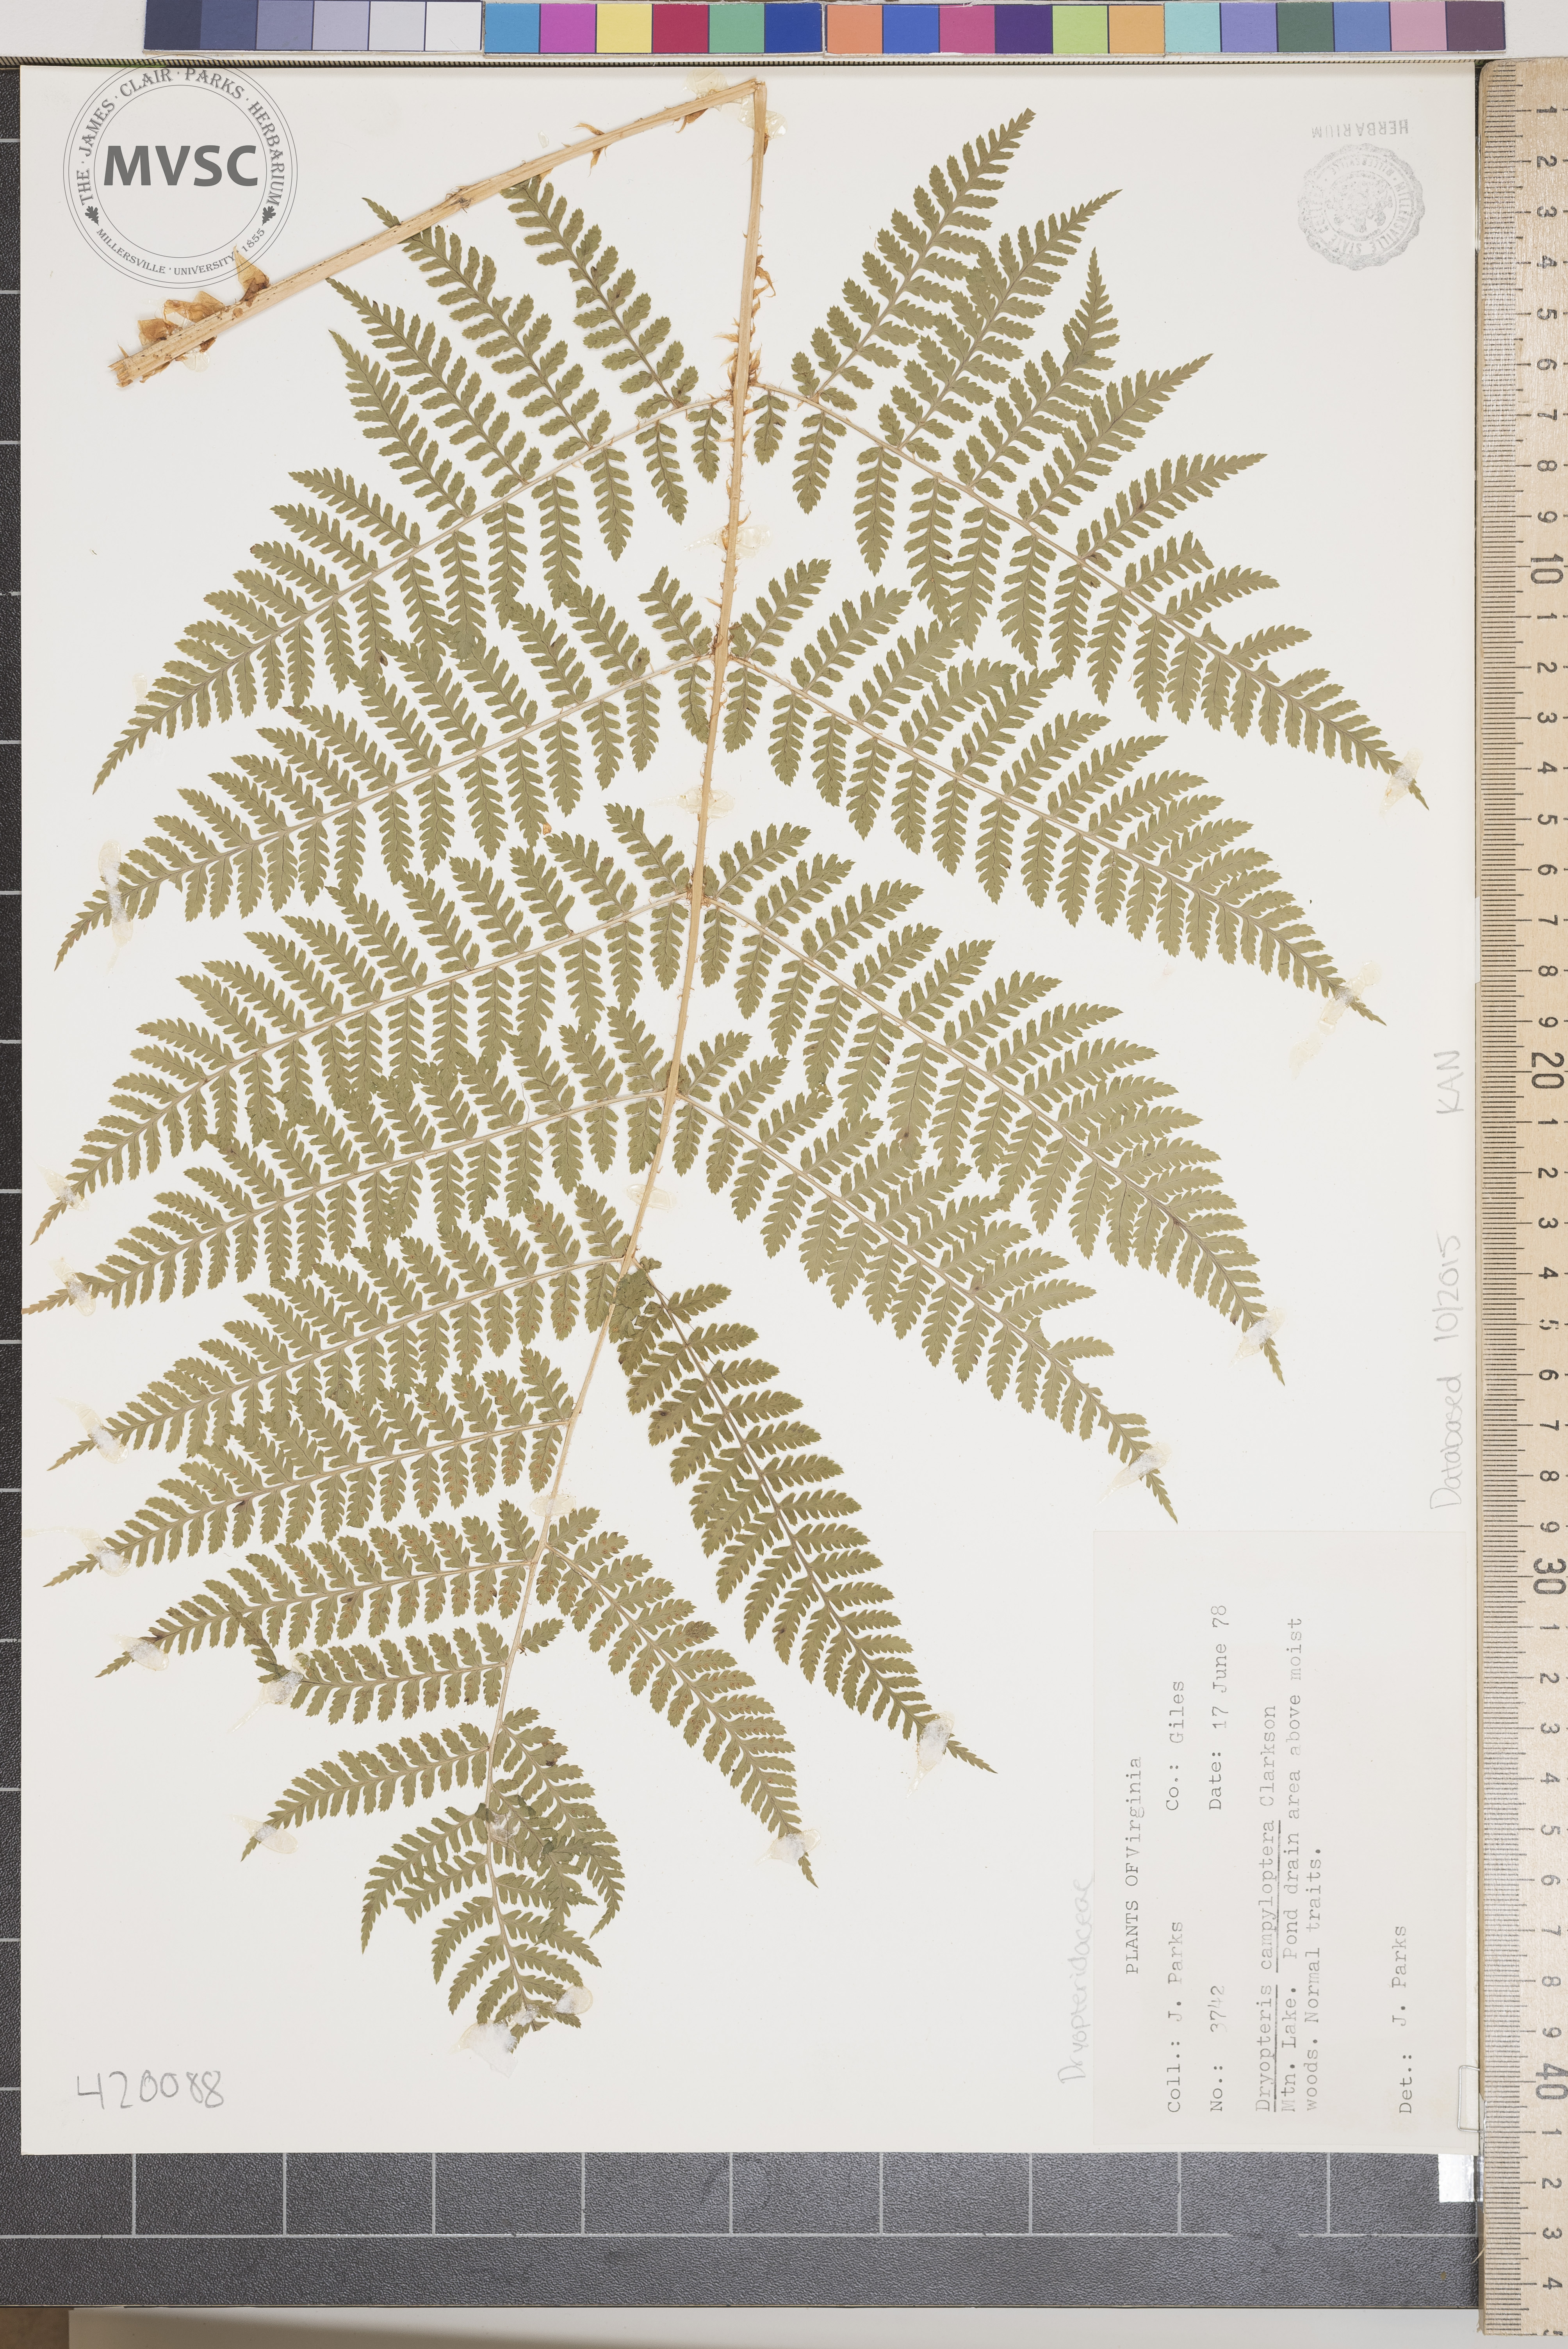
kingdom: Plantae
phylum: Tracheophyta
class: Polypodiopsida
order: Polypodiales
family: Dryopteridaceae
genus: Dryopteris
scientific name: Dryopteris campyloptera
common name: Mountain Wood Fern
